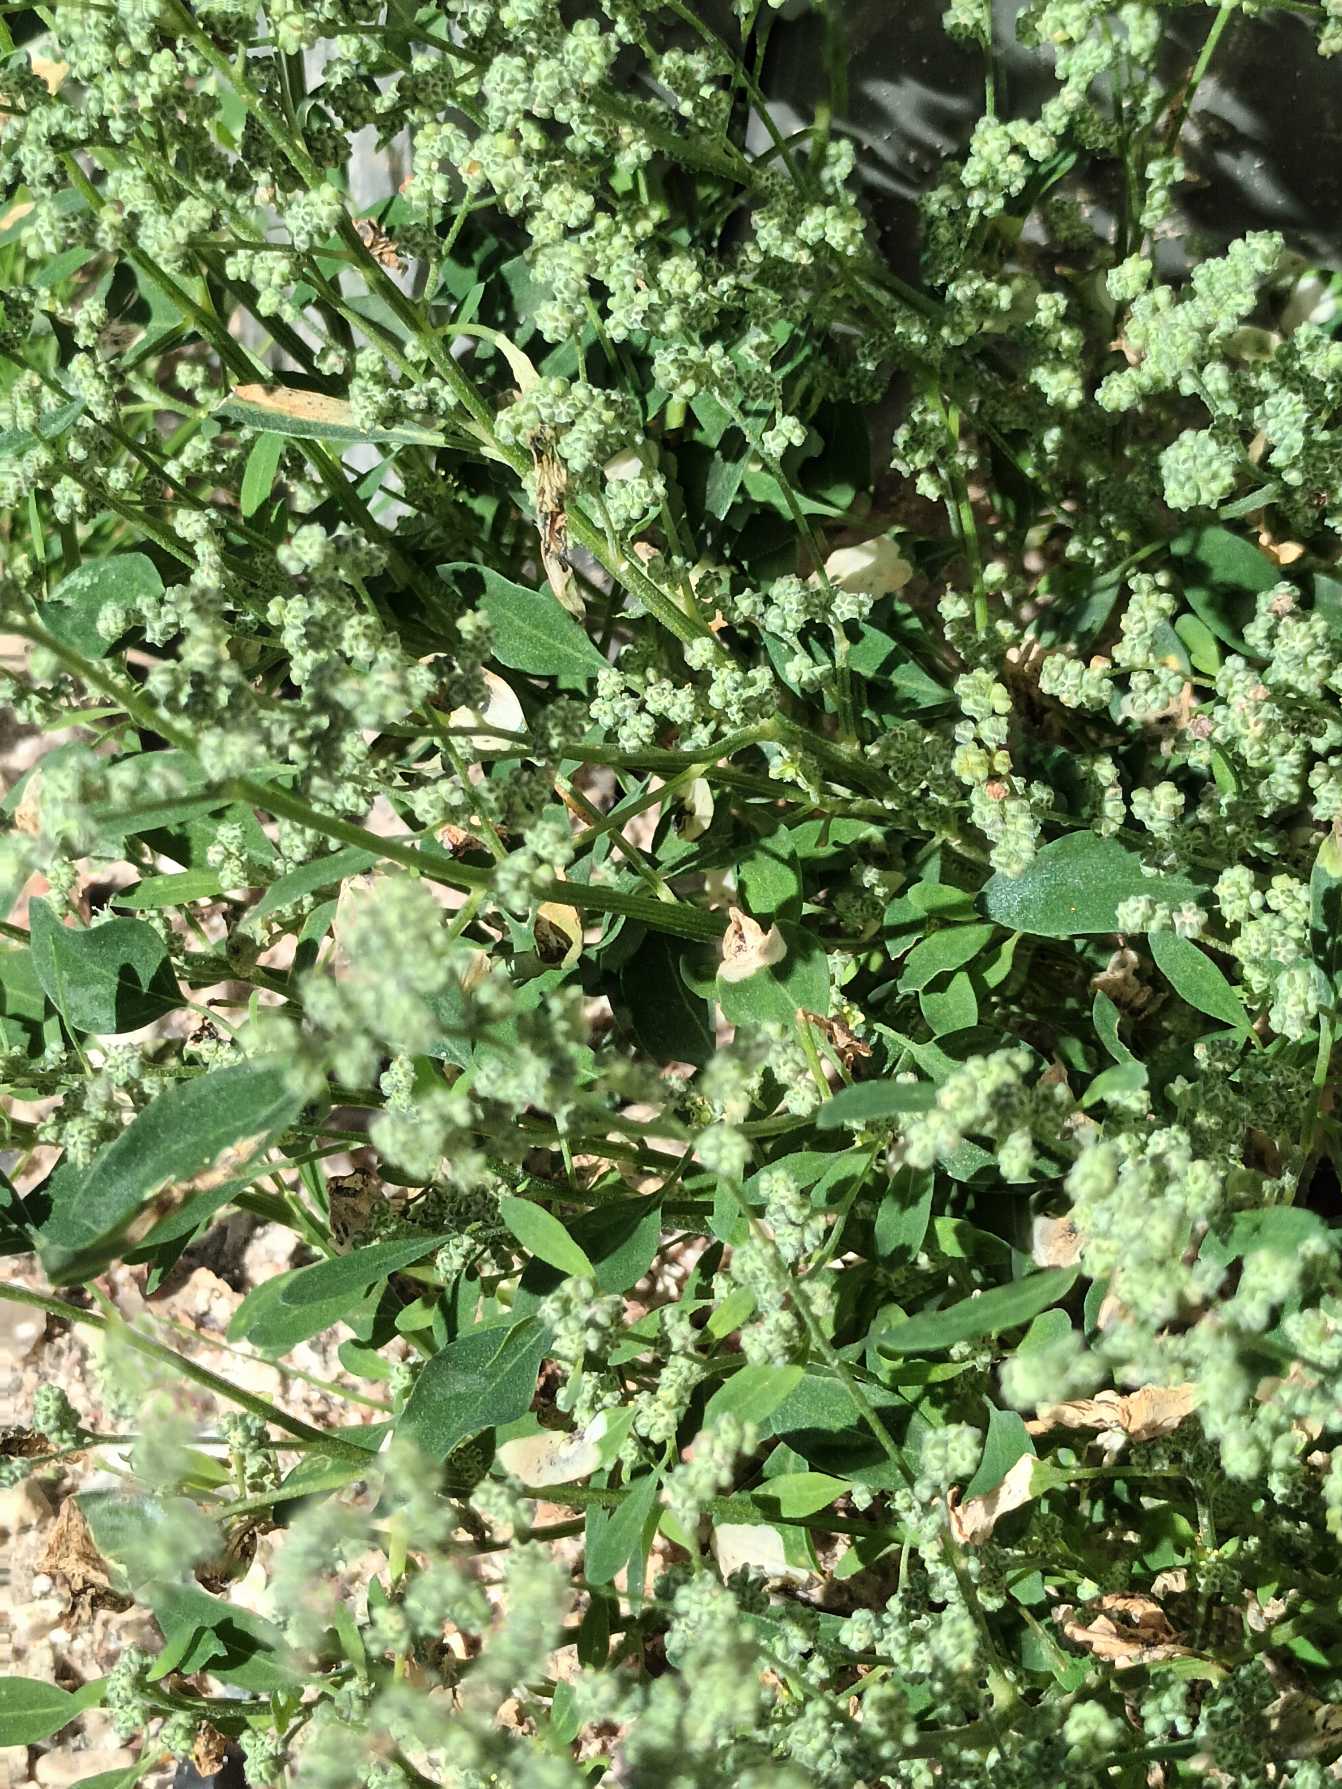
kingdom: Plantae
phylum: Tracheophyta
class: Magnoliopsida
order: Caryophyllales
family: Amaranthaceae
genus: Chenopodium
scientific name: Chenopodium suecicum
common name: Grøn gåsefod
